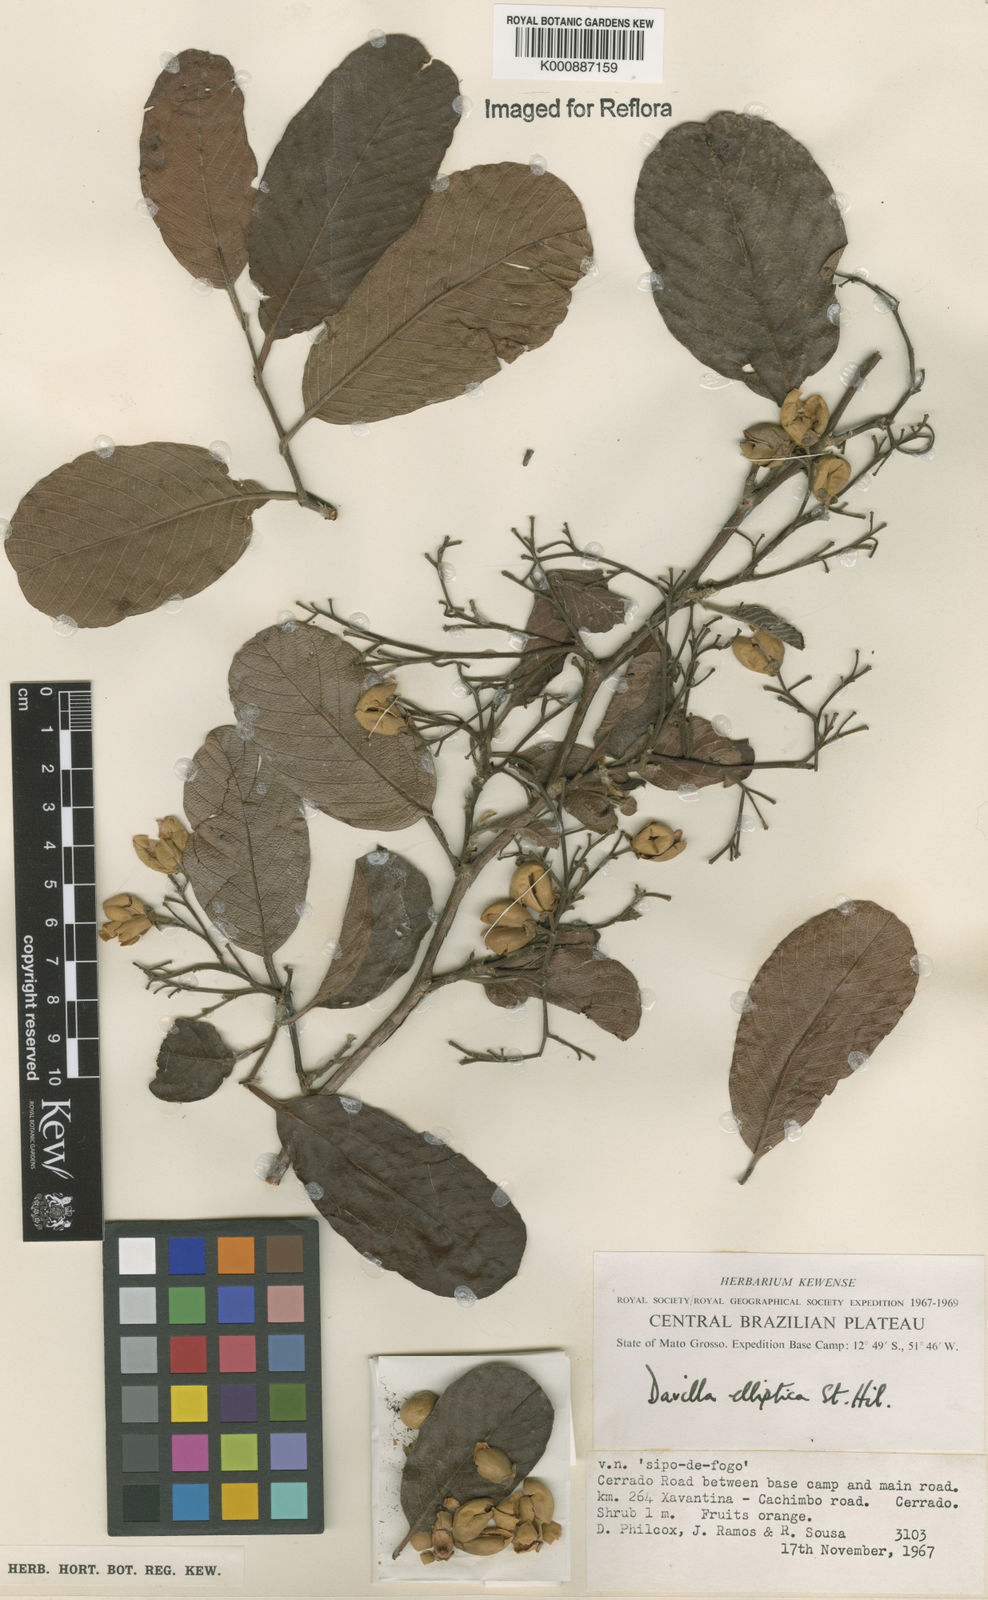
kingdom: Plantae
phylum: Tracheophyta
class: Magnoliopsida
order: Dilleniales
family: Dilleniaceae
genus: Davilla
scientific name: Davilla elliptica
